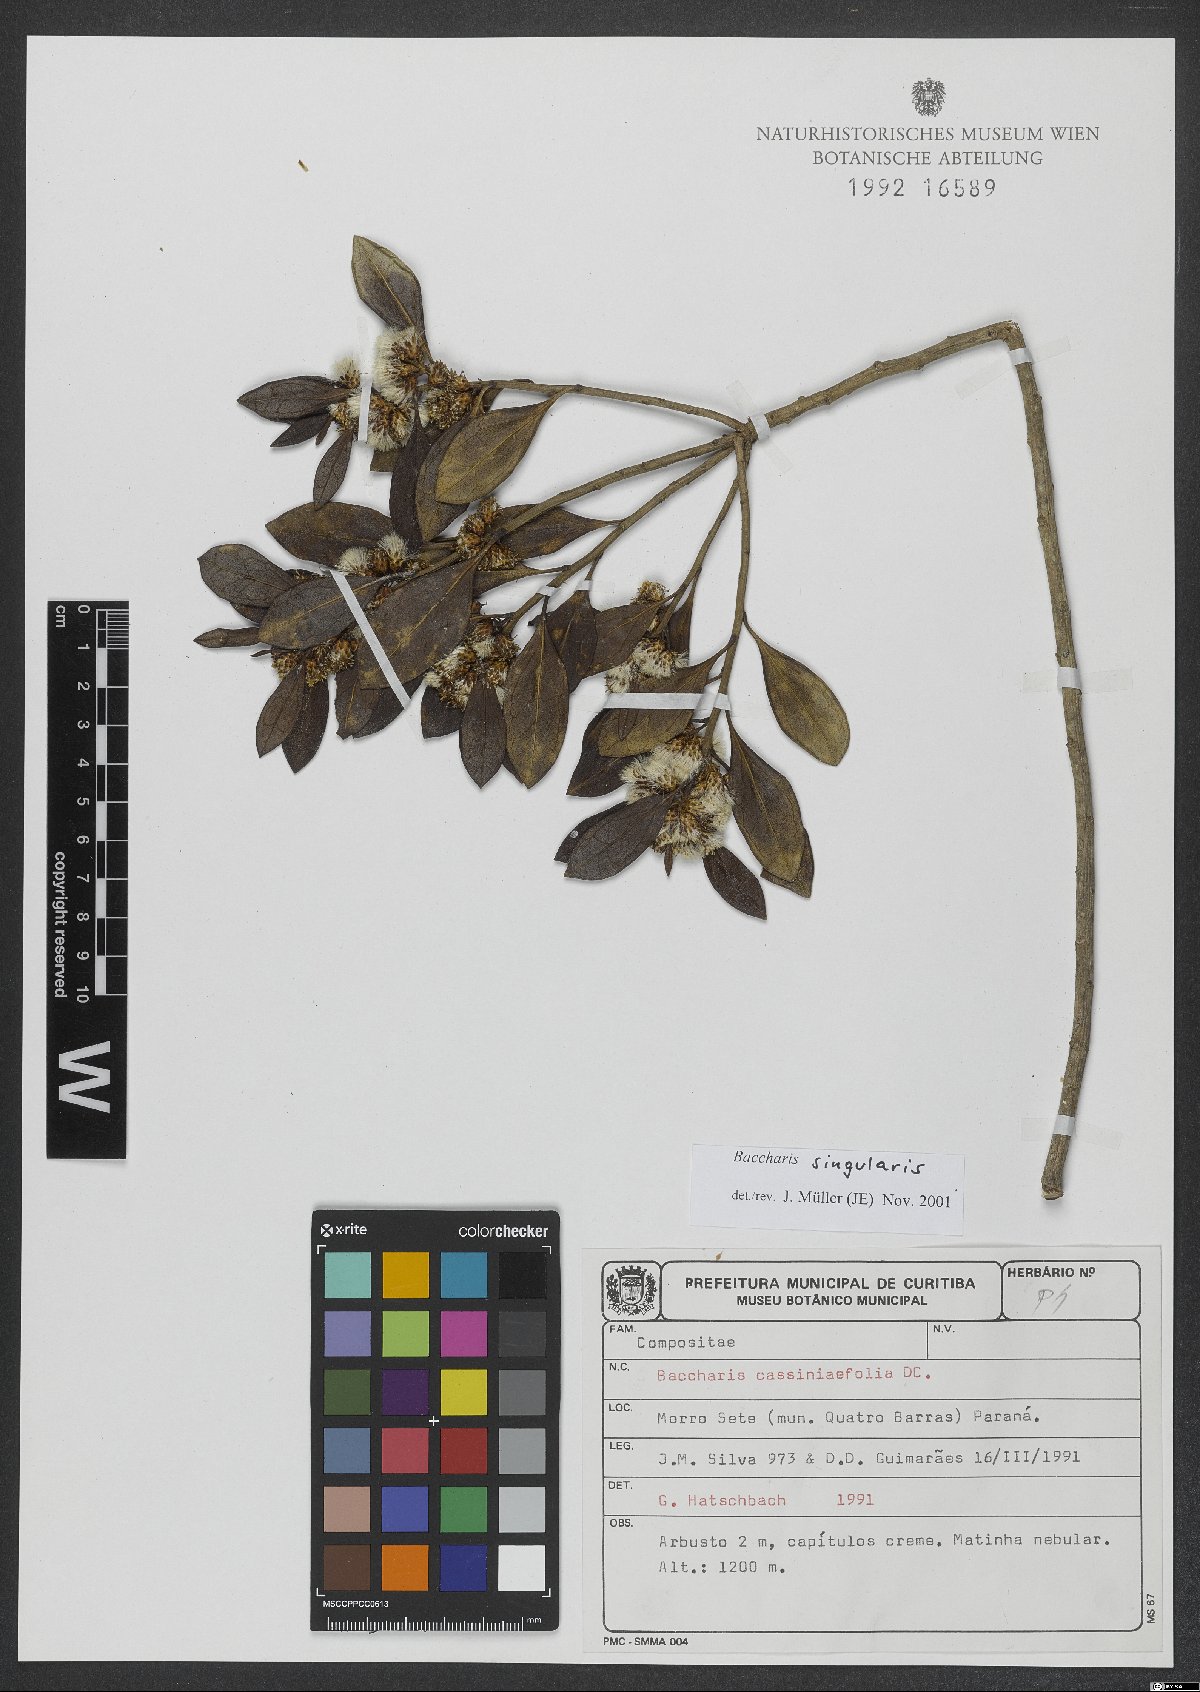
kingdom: Plantae
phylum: Tracheophyta
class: Magnoliopsida
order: Asterales
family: Asteraceae
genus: Baccharis
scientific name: Baccharis singularis
